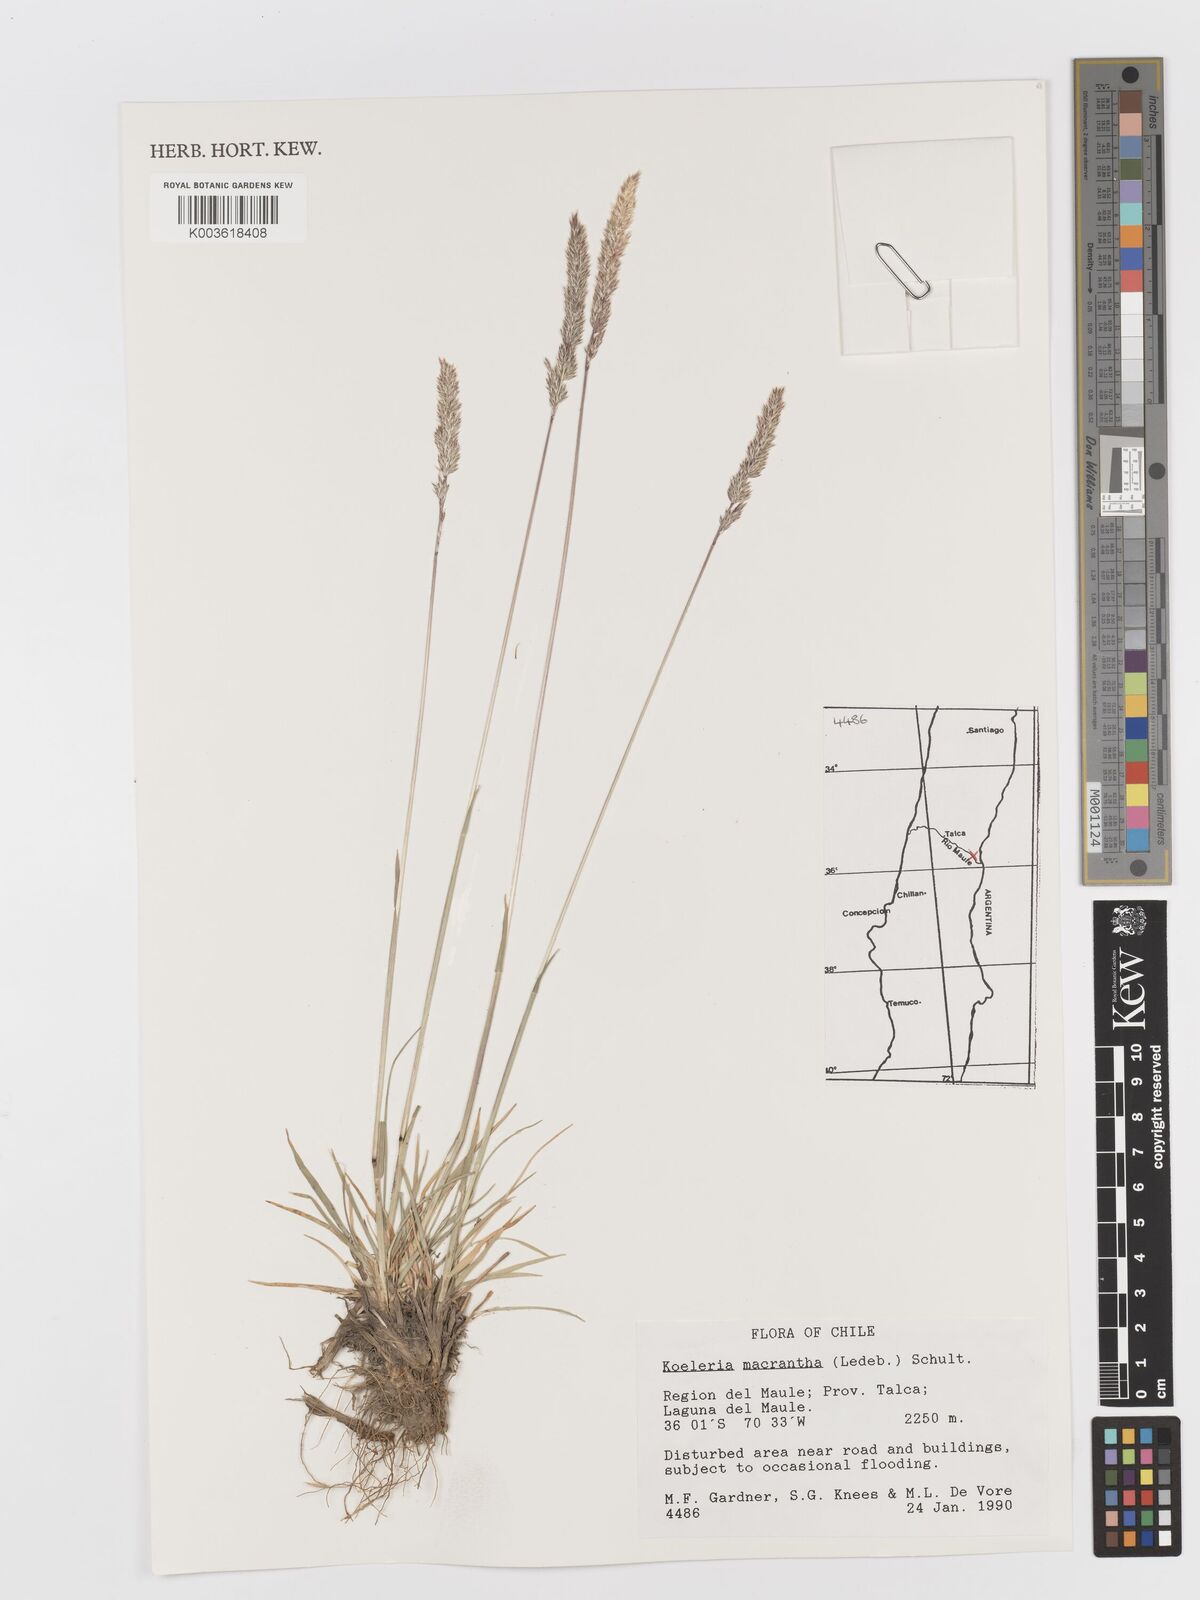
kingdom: Plantae
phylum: Tracheophyta
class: Liliopsida
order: Poales
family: Poaceae
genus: Koeleria
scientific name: Koeleria
